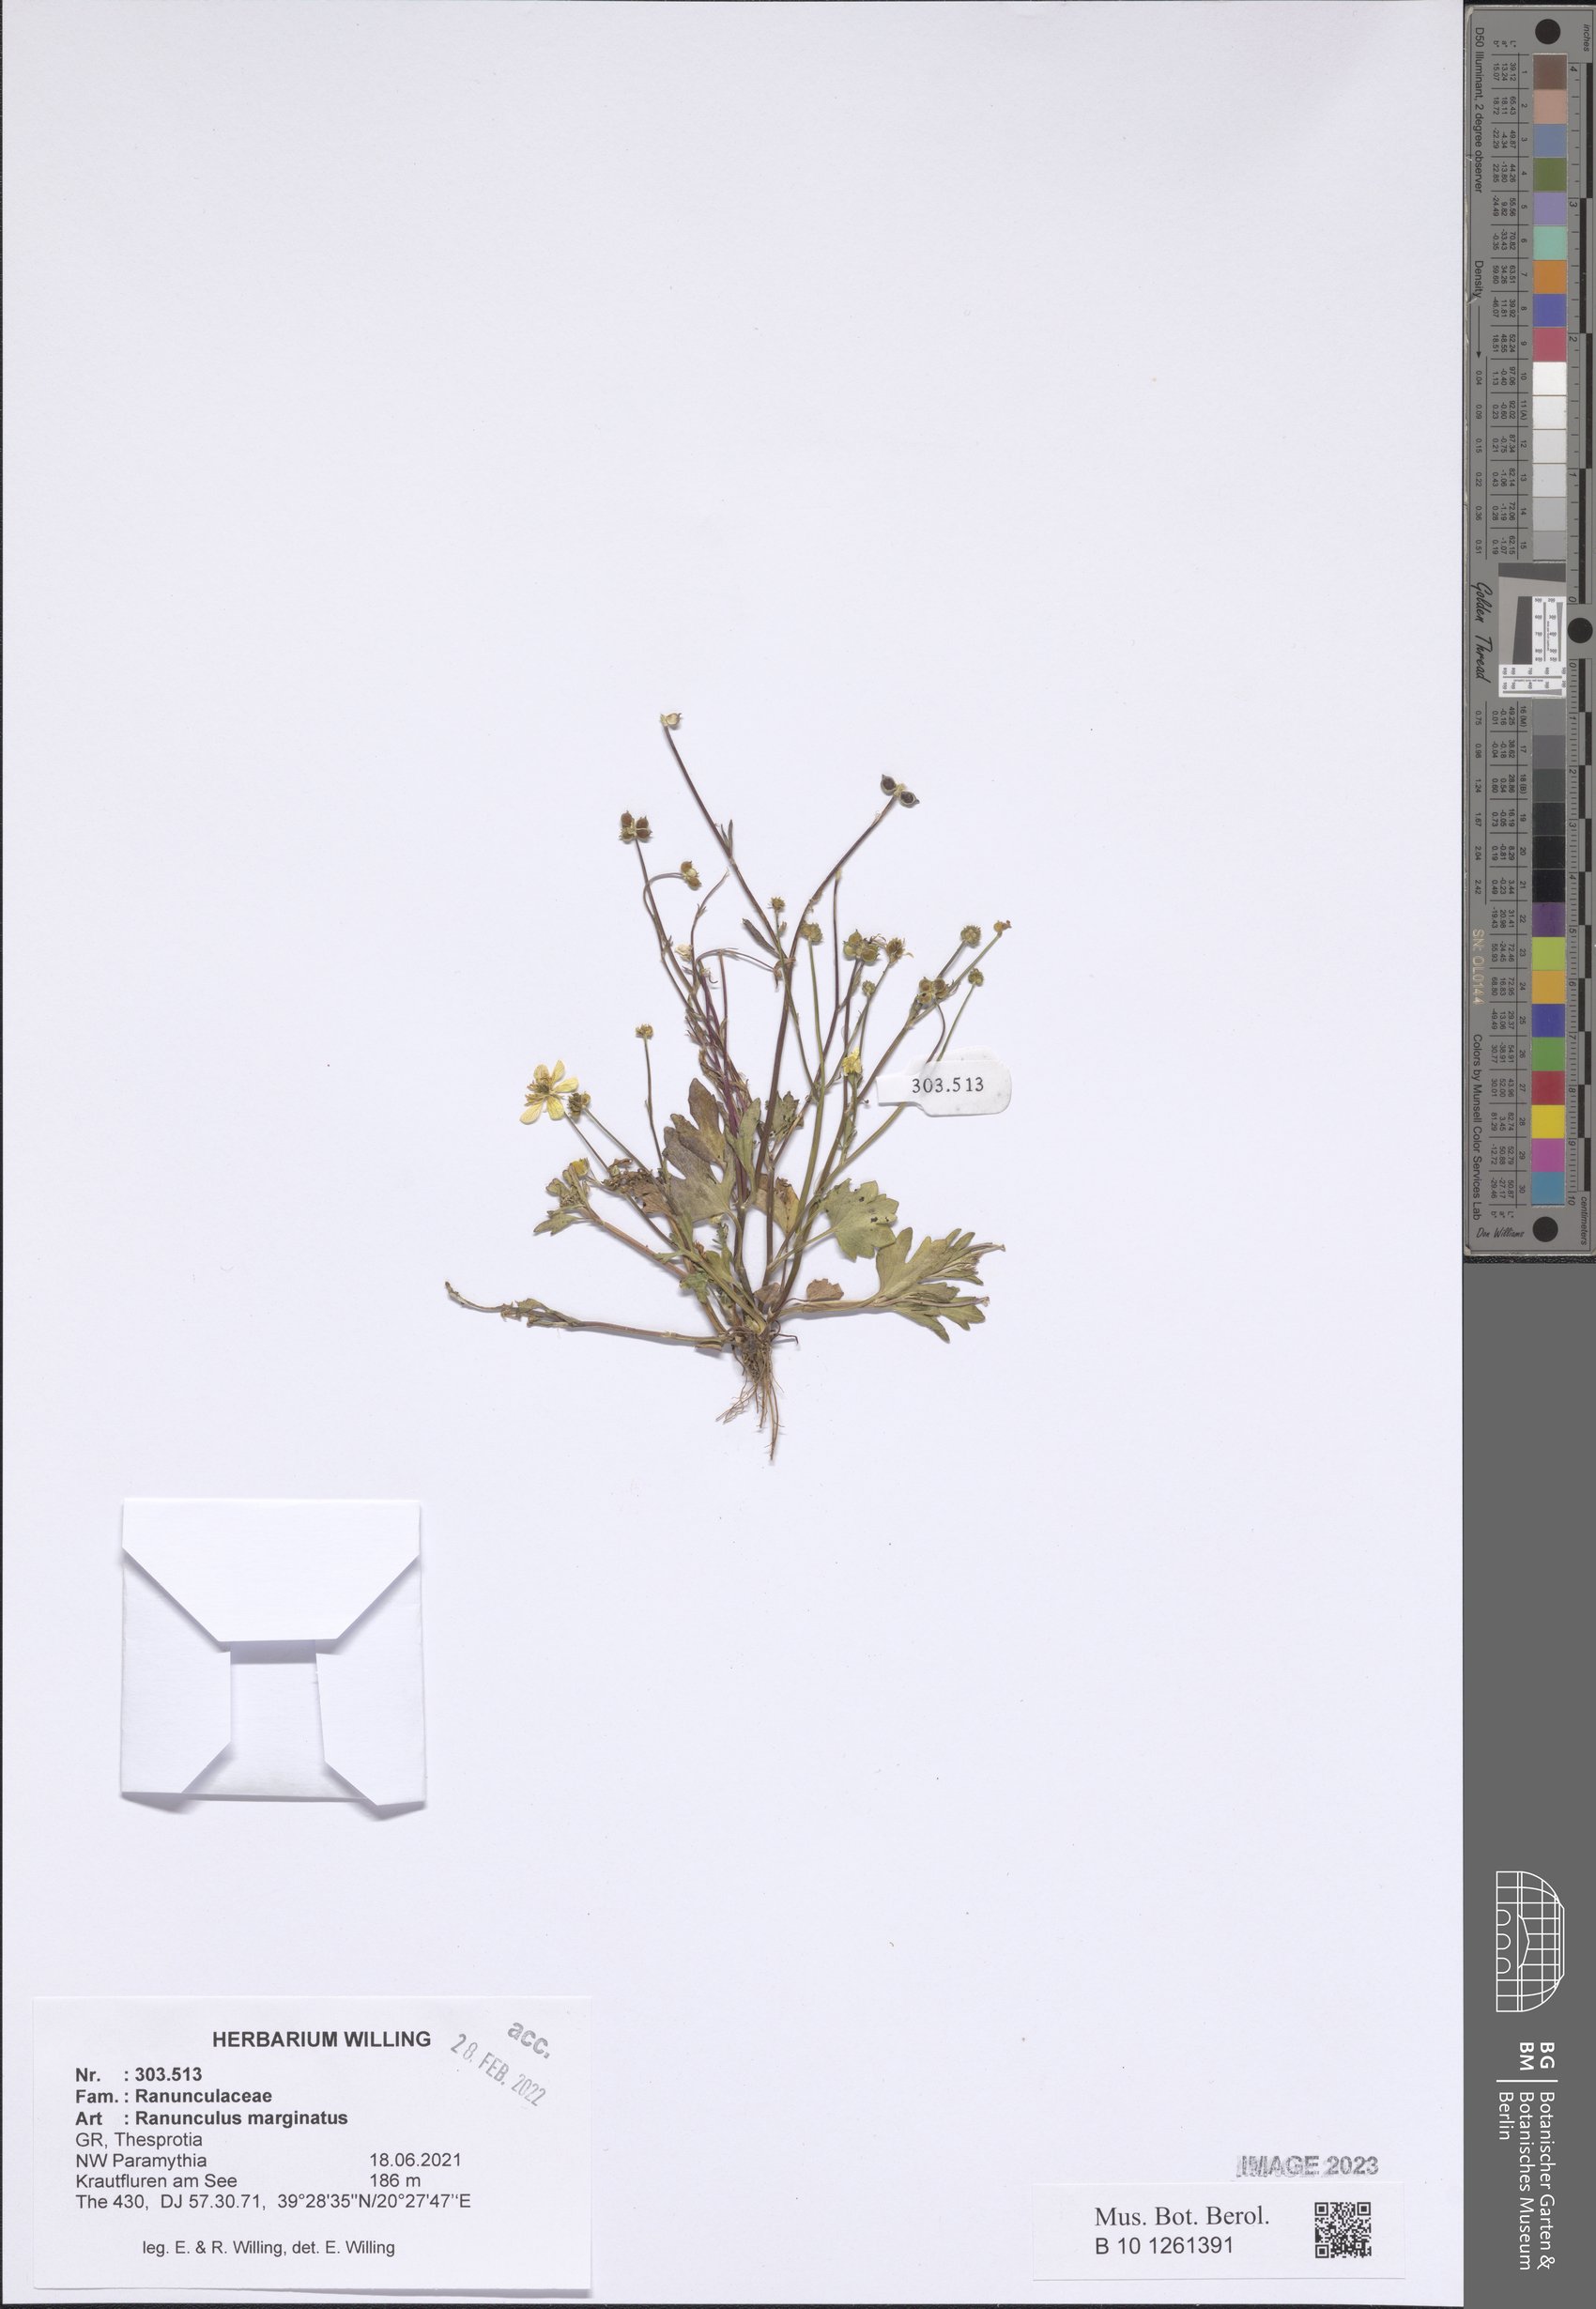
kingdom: Plantae
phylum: Tracheophyta
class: Magnoliopsida
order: Ranunculales
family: Ranunculaceae
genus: Ranunculus
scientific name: Ranunculus marginatus
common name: St. martin's buttercup
